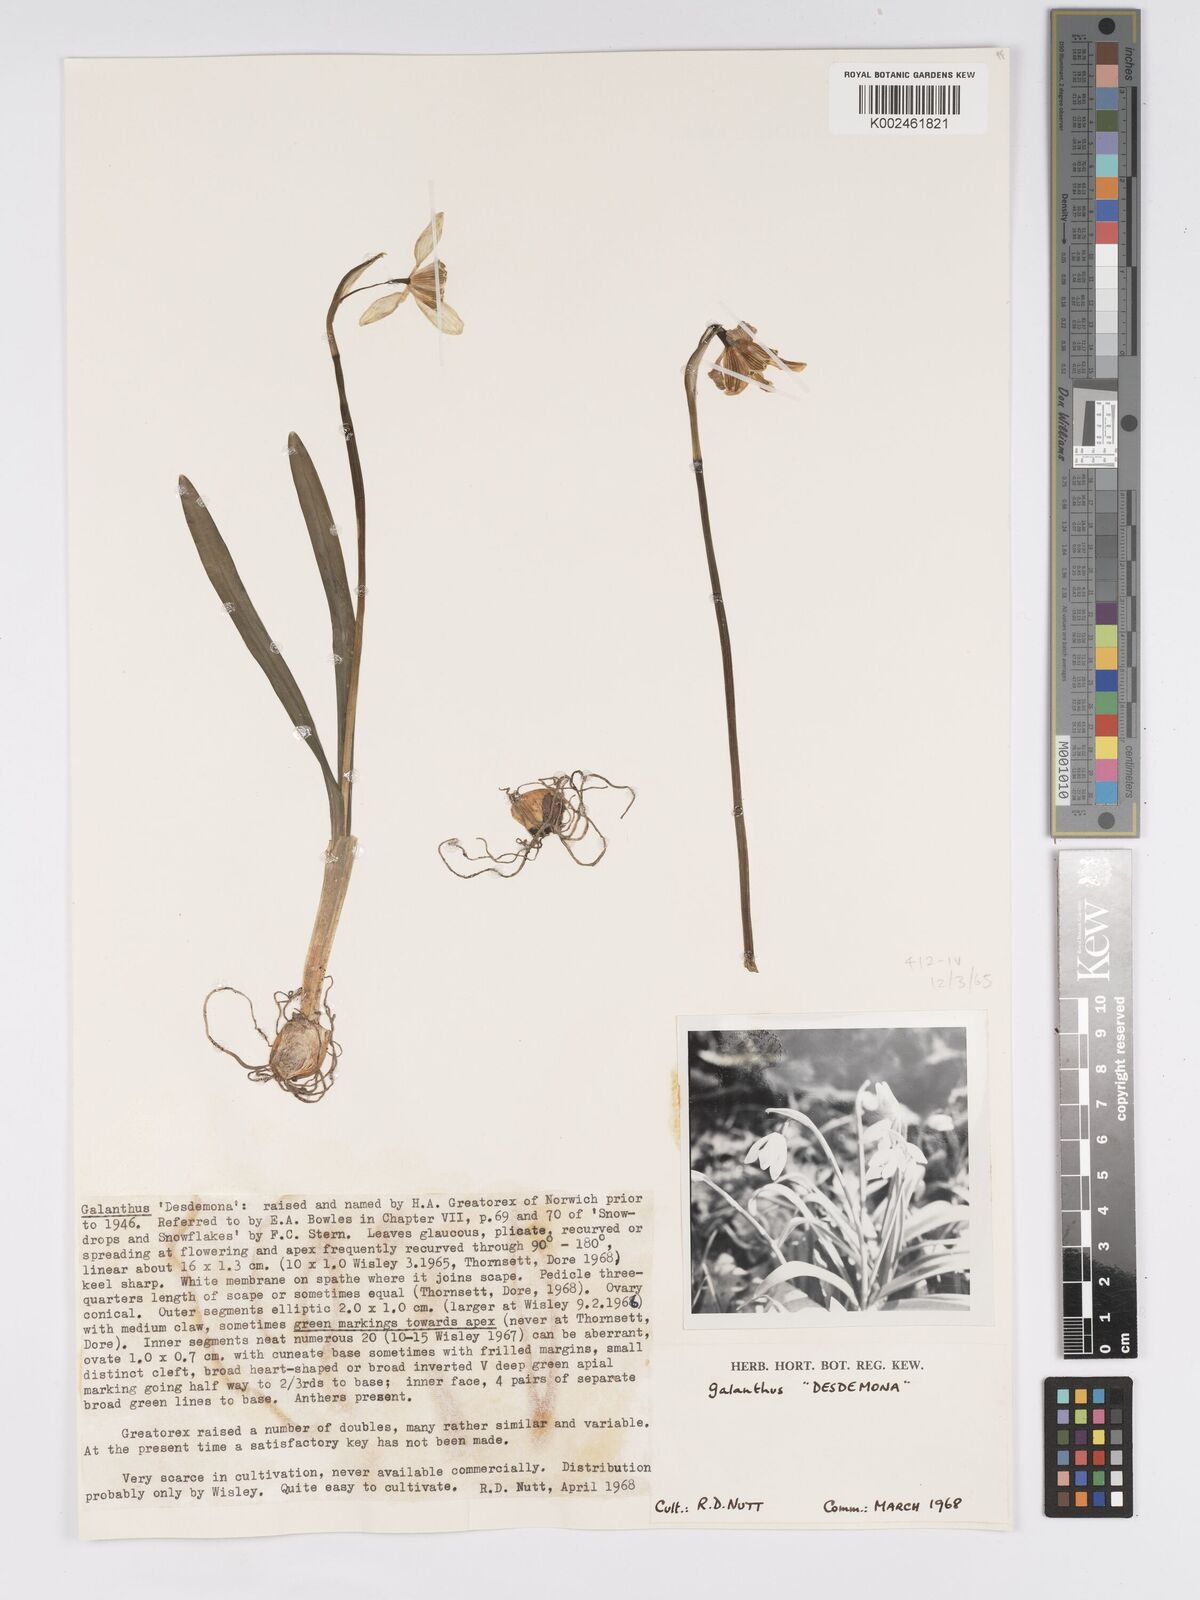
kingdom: Plantae
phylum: Tracheophyta
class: Liliopsida
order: Asparagales
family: Amaryllidaceae
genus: Galanthus
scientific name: Galanthus
